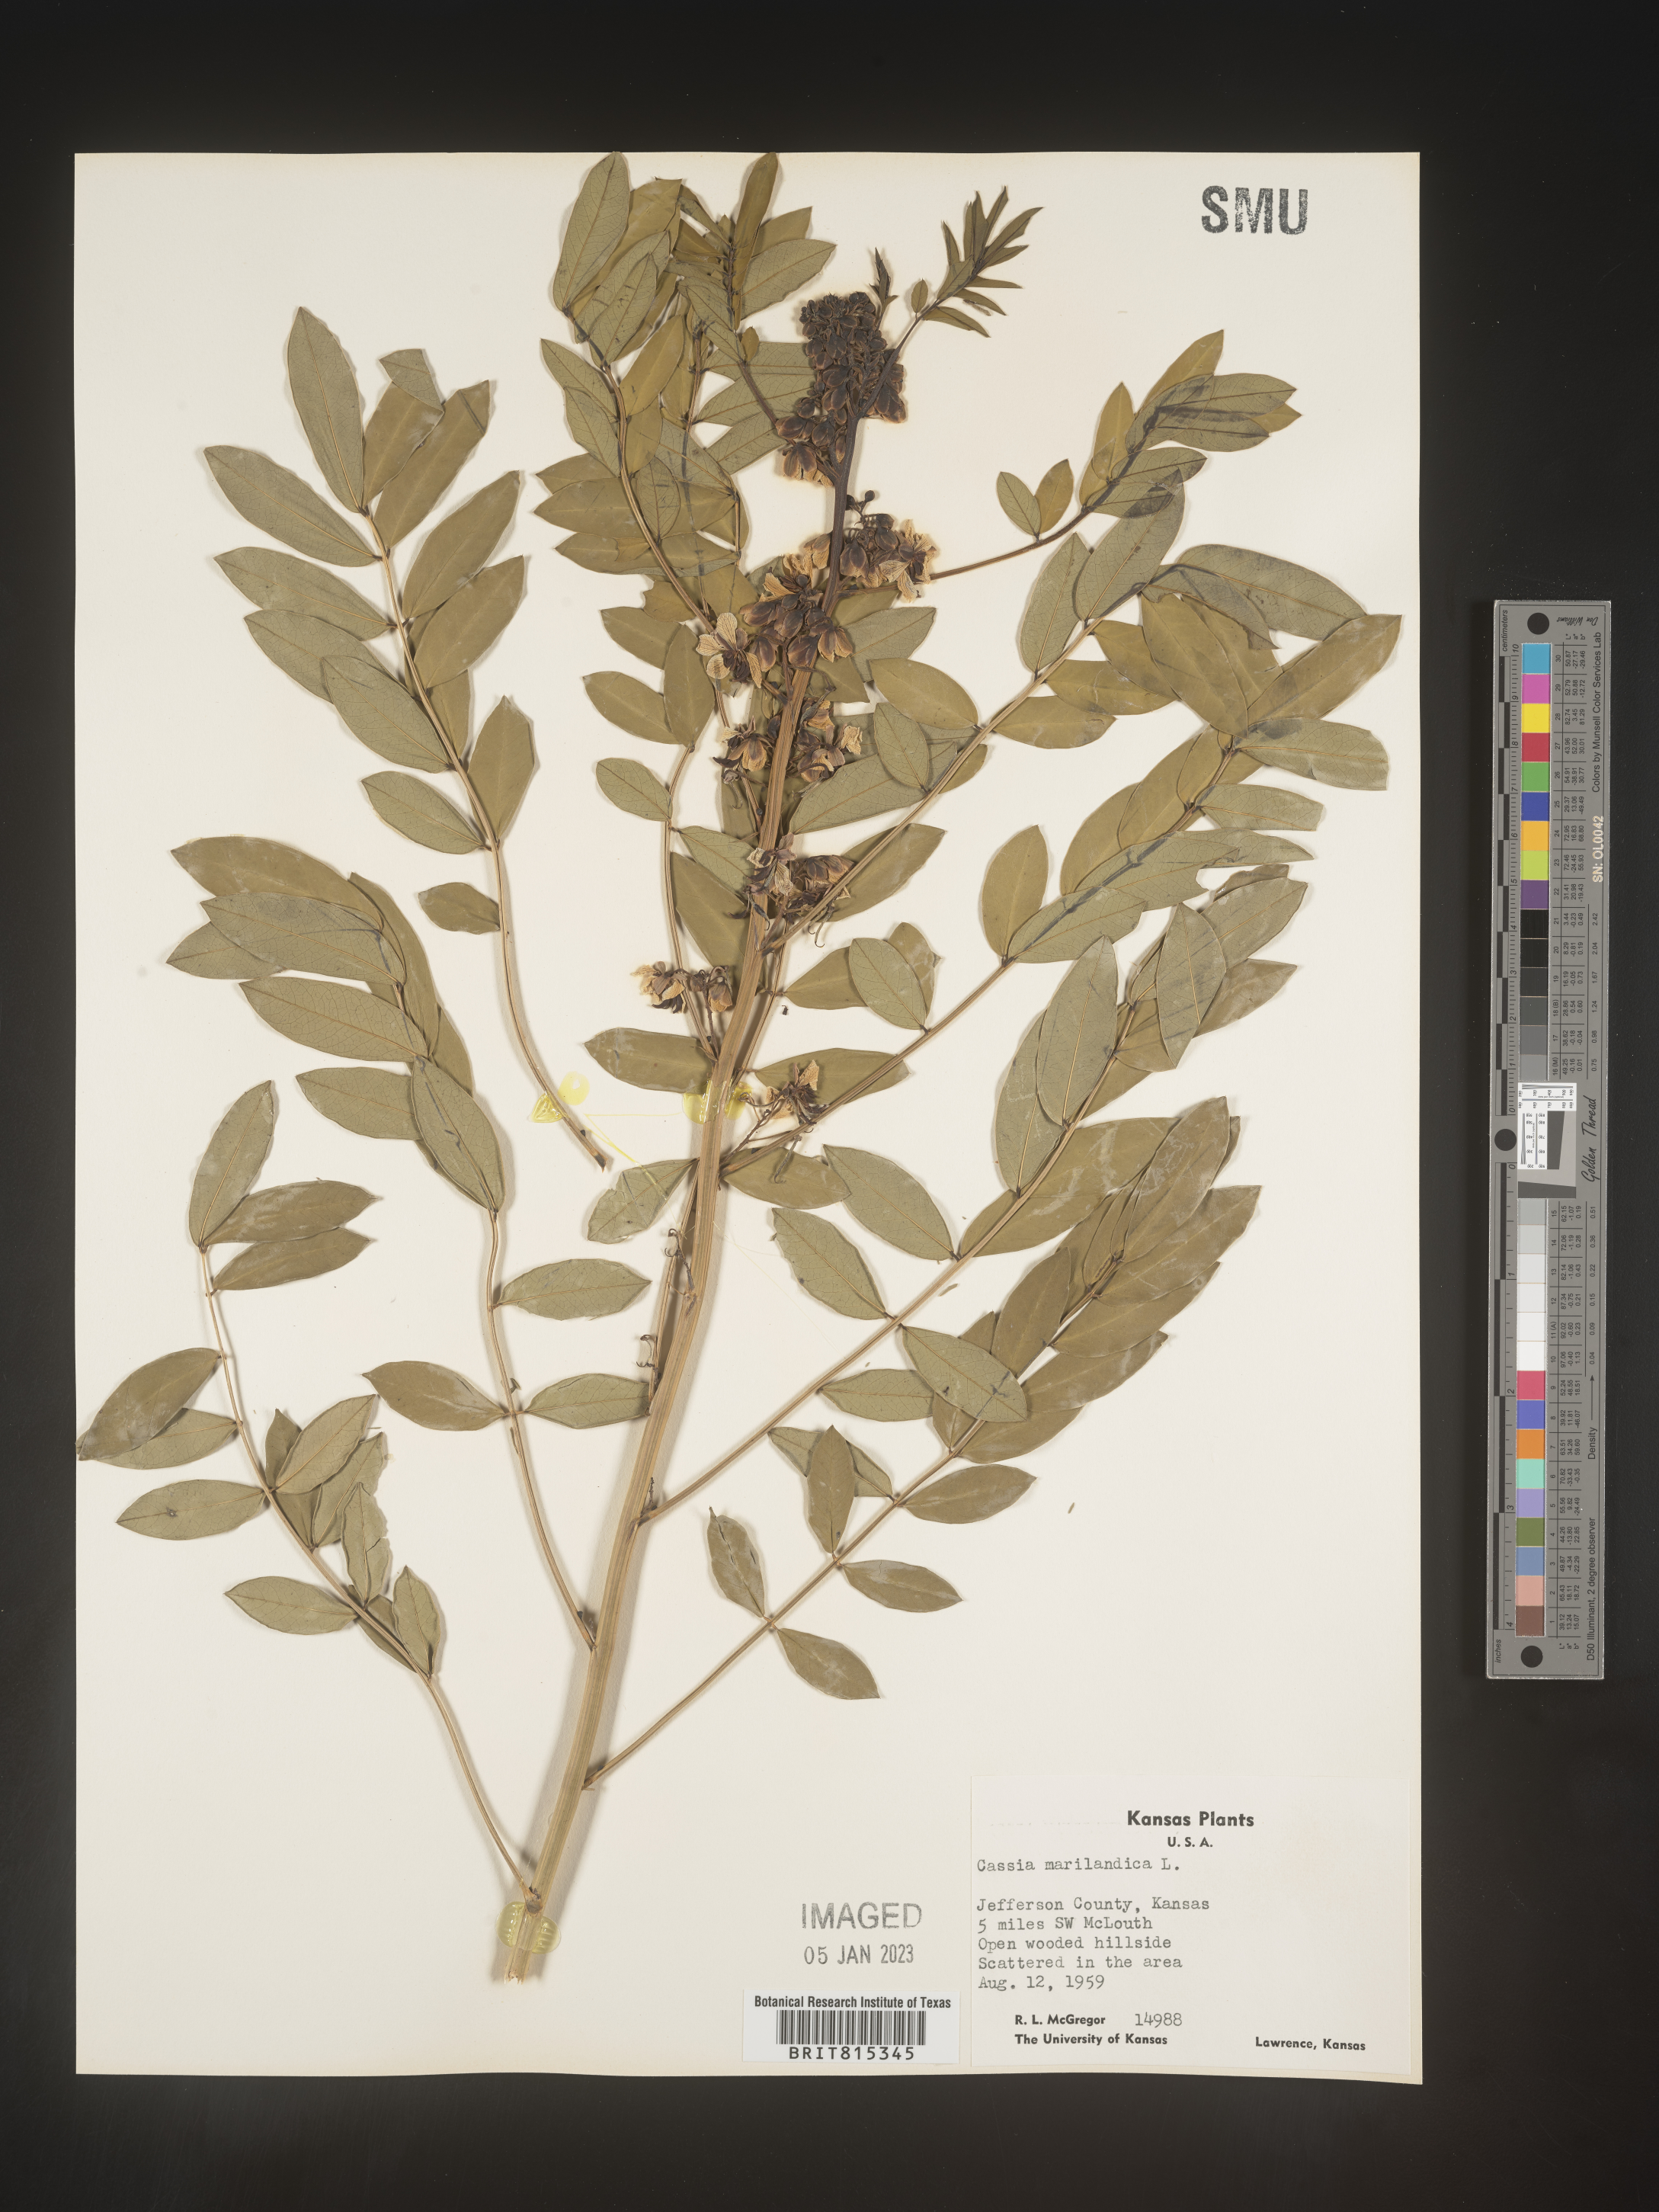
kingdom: Plantae
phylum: Tracheophyta
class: Magnoliopsida
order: Fabales
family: Fabaceae
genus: Senna
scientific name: Senna marilandica
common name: American senna
